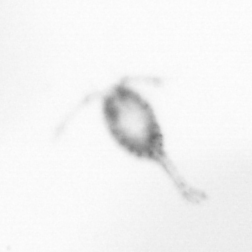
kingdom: Animalia
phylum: Arthropoda
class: Copepoda
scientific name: Copepoda
